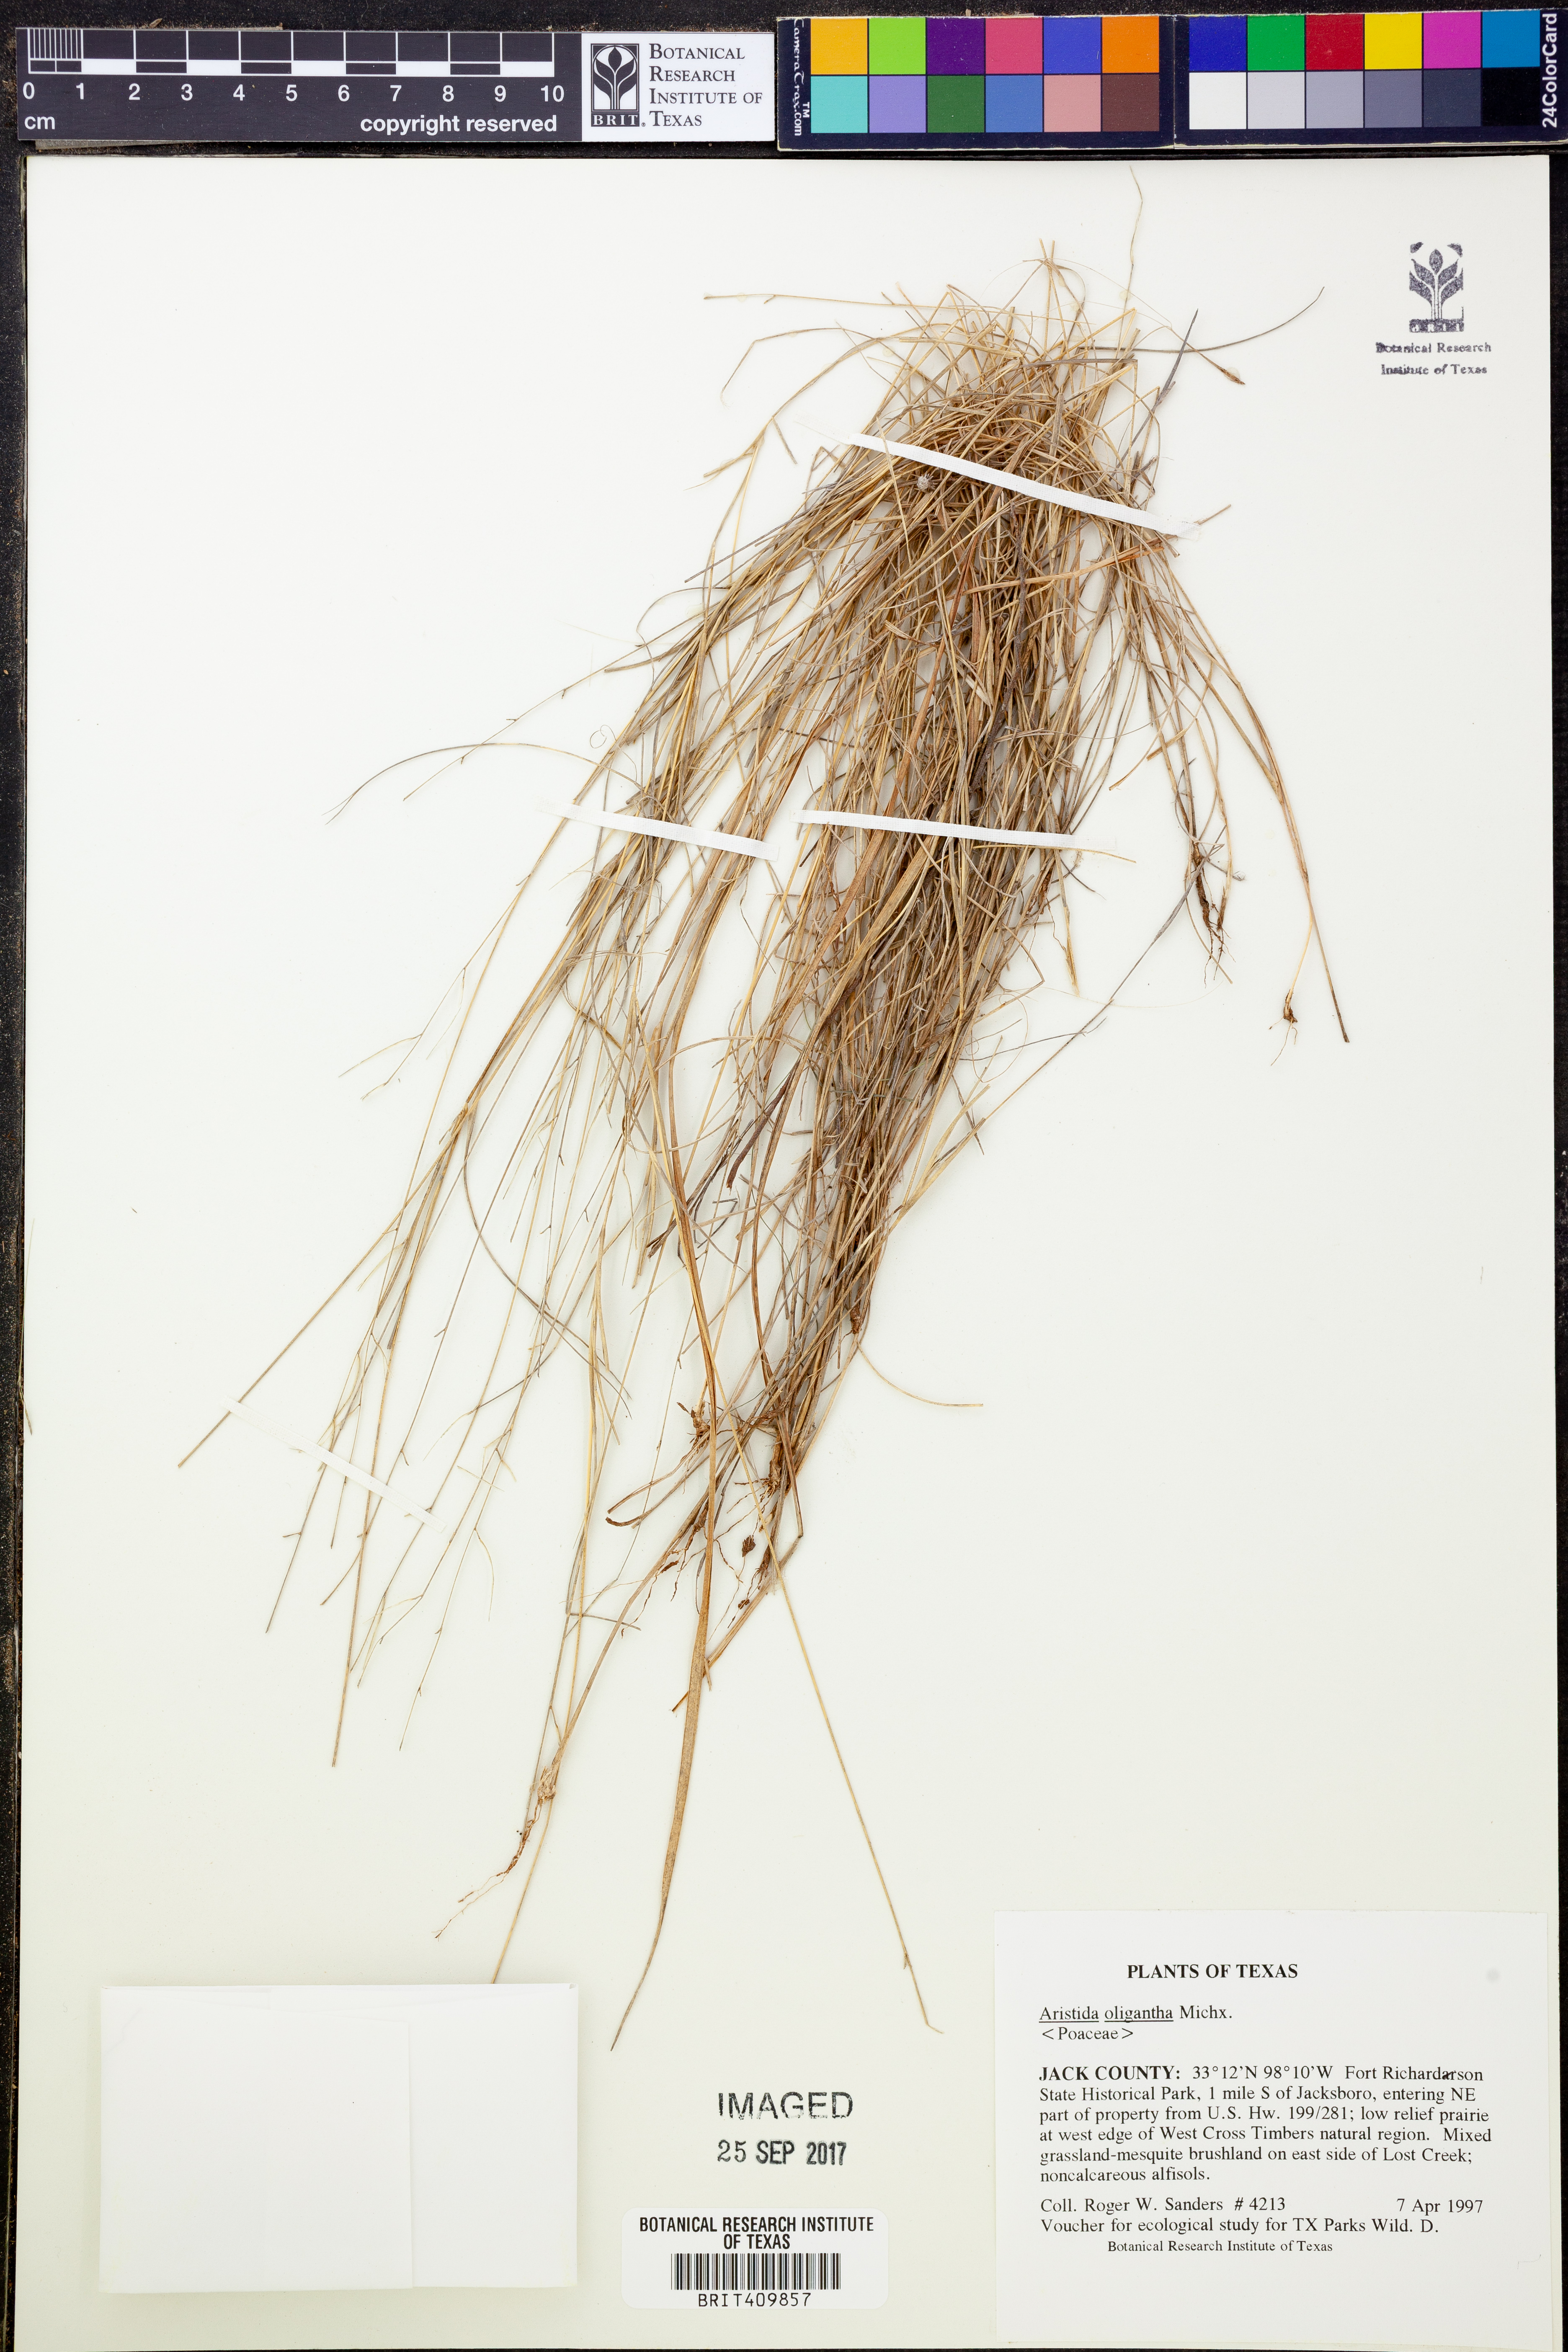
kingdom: Plantae
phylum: Tracheophyta
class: Liliopsida
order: Poales
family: Poaceae
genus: Aristida
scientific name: Aristida oligantha
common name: Few-flowered aristida
